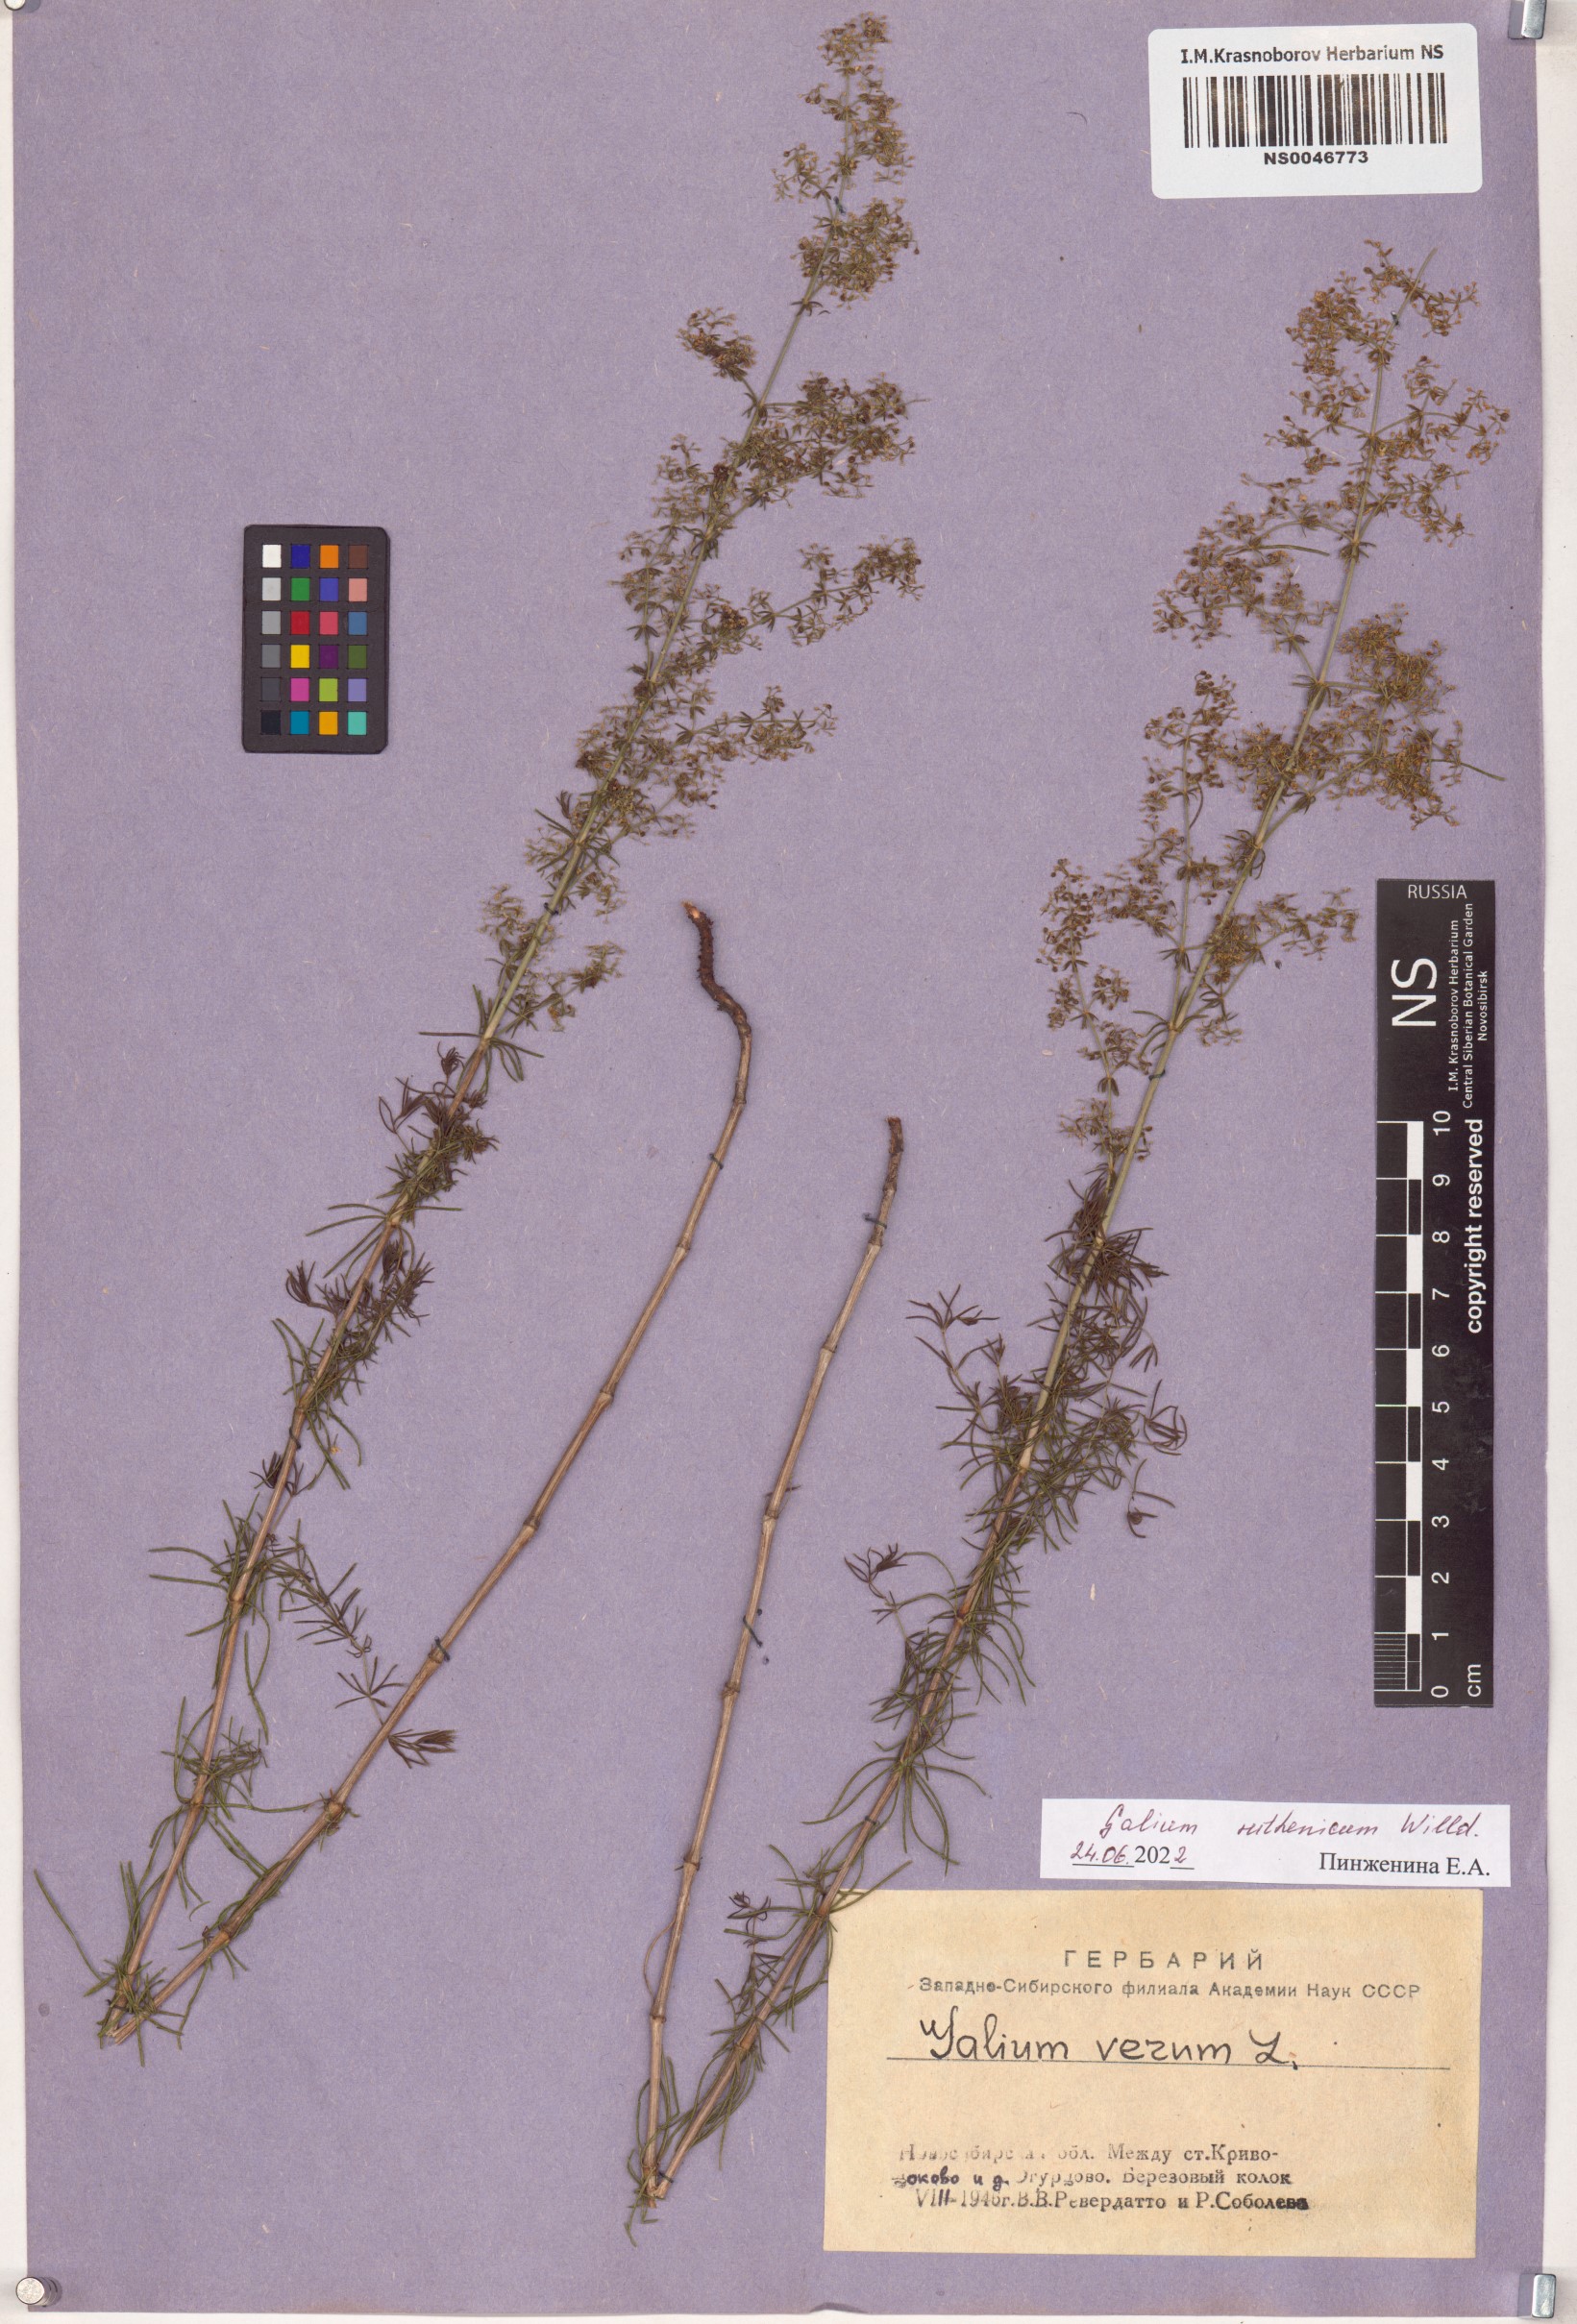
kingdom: Plantae
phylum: Tracheophyta
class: Magnoliopsida
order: Gentianales
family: Rubiaceae
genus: Galium
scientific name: Galium verum
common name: Lady's bedstraw
